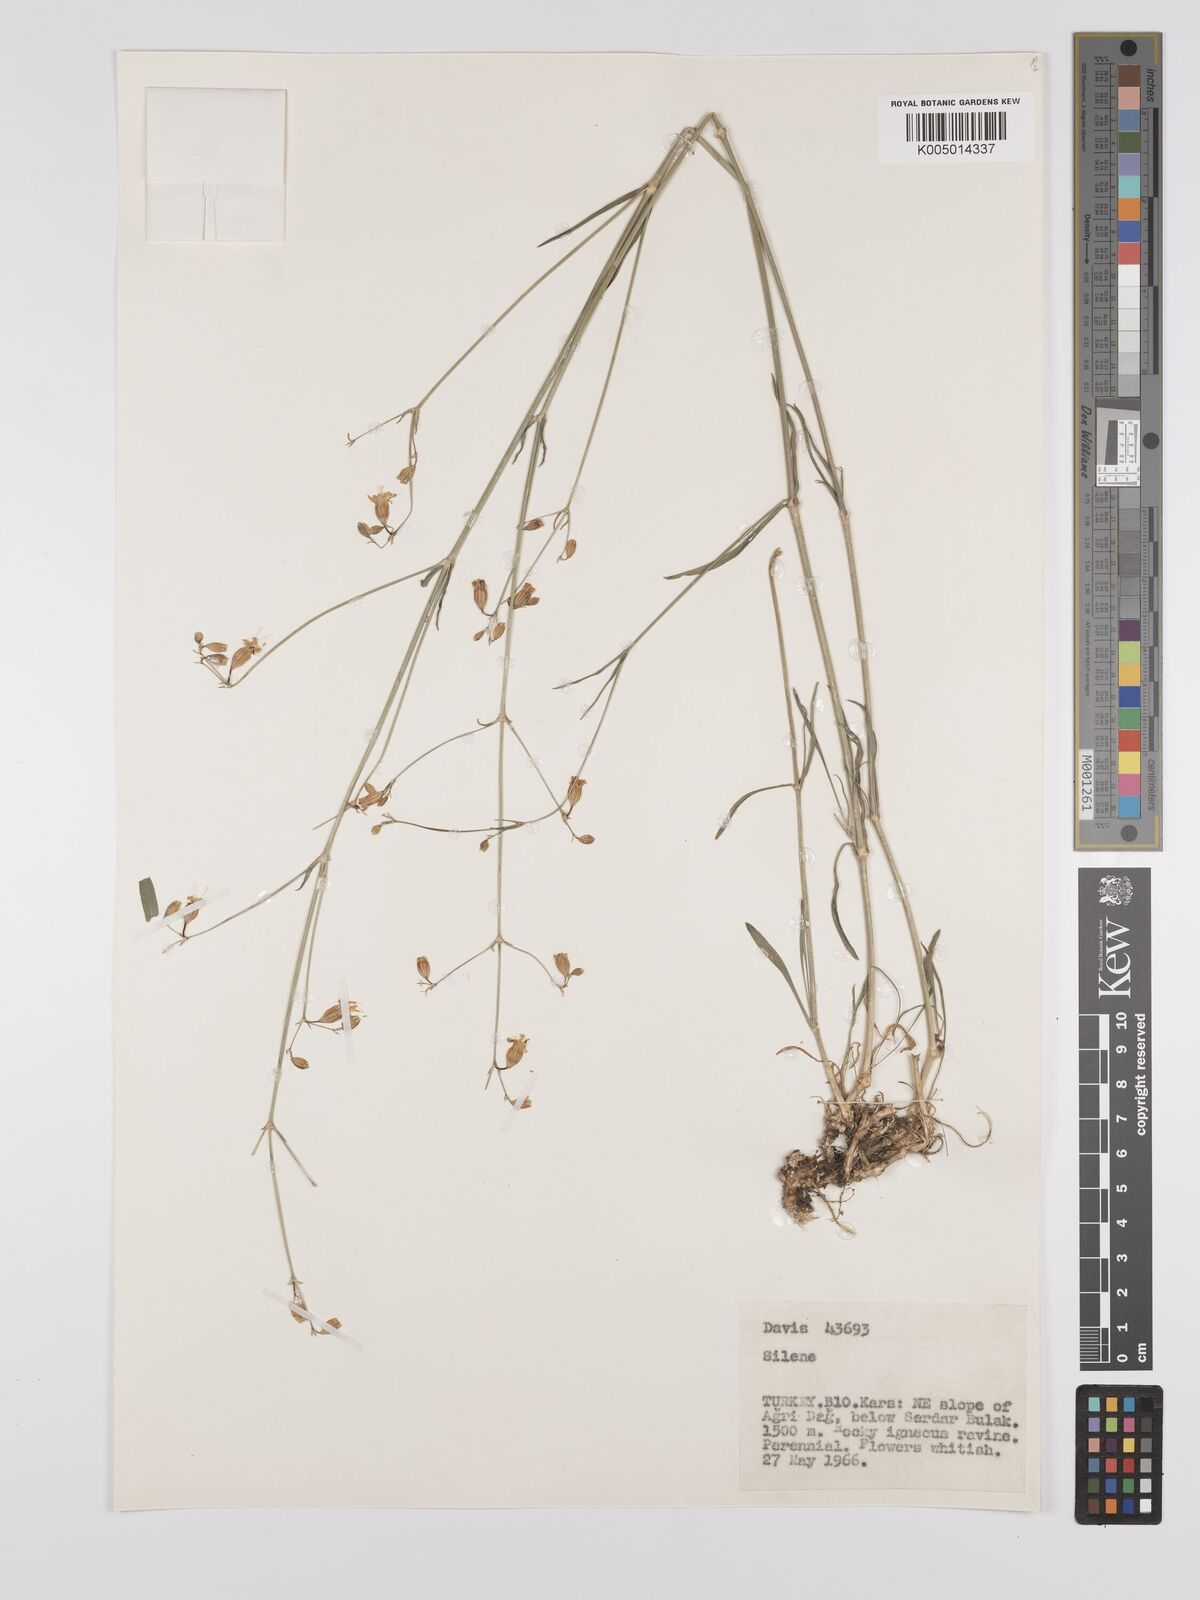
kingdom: Plantae
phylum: Tracheophyta
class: Magnoliopsida
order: Caryophyllales
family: Caryophyllaceae
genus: Silene
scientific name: Silene
